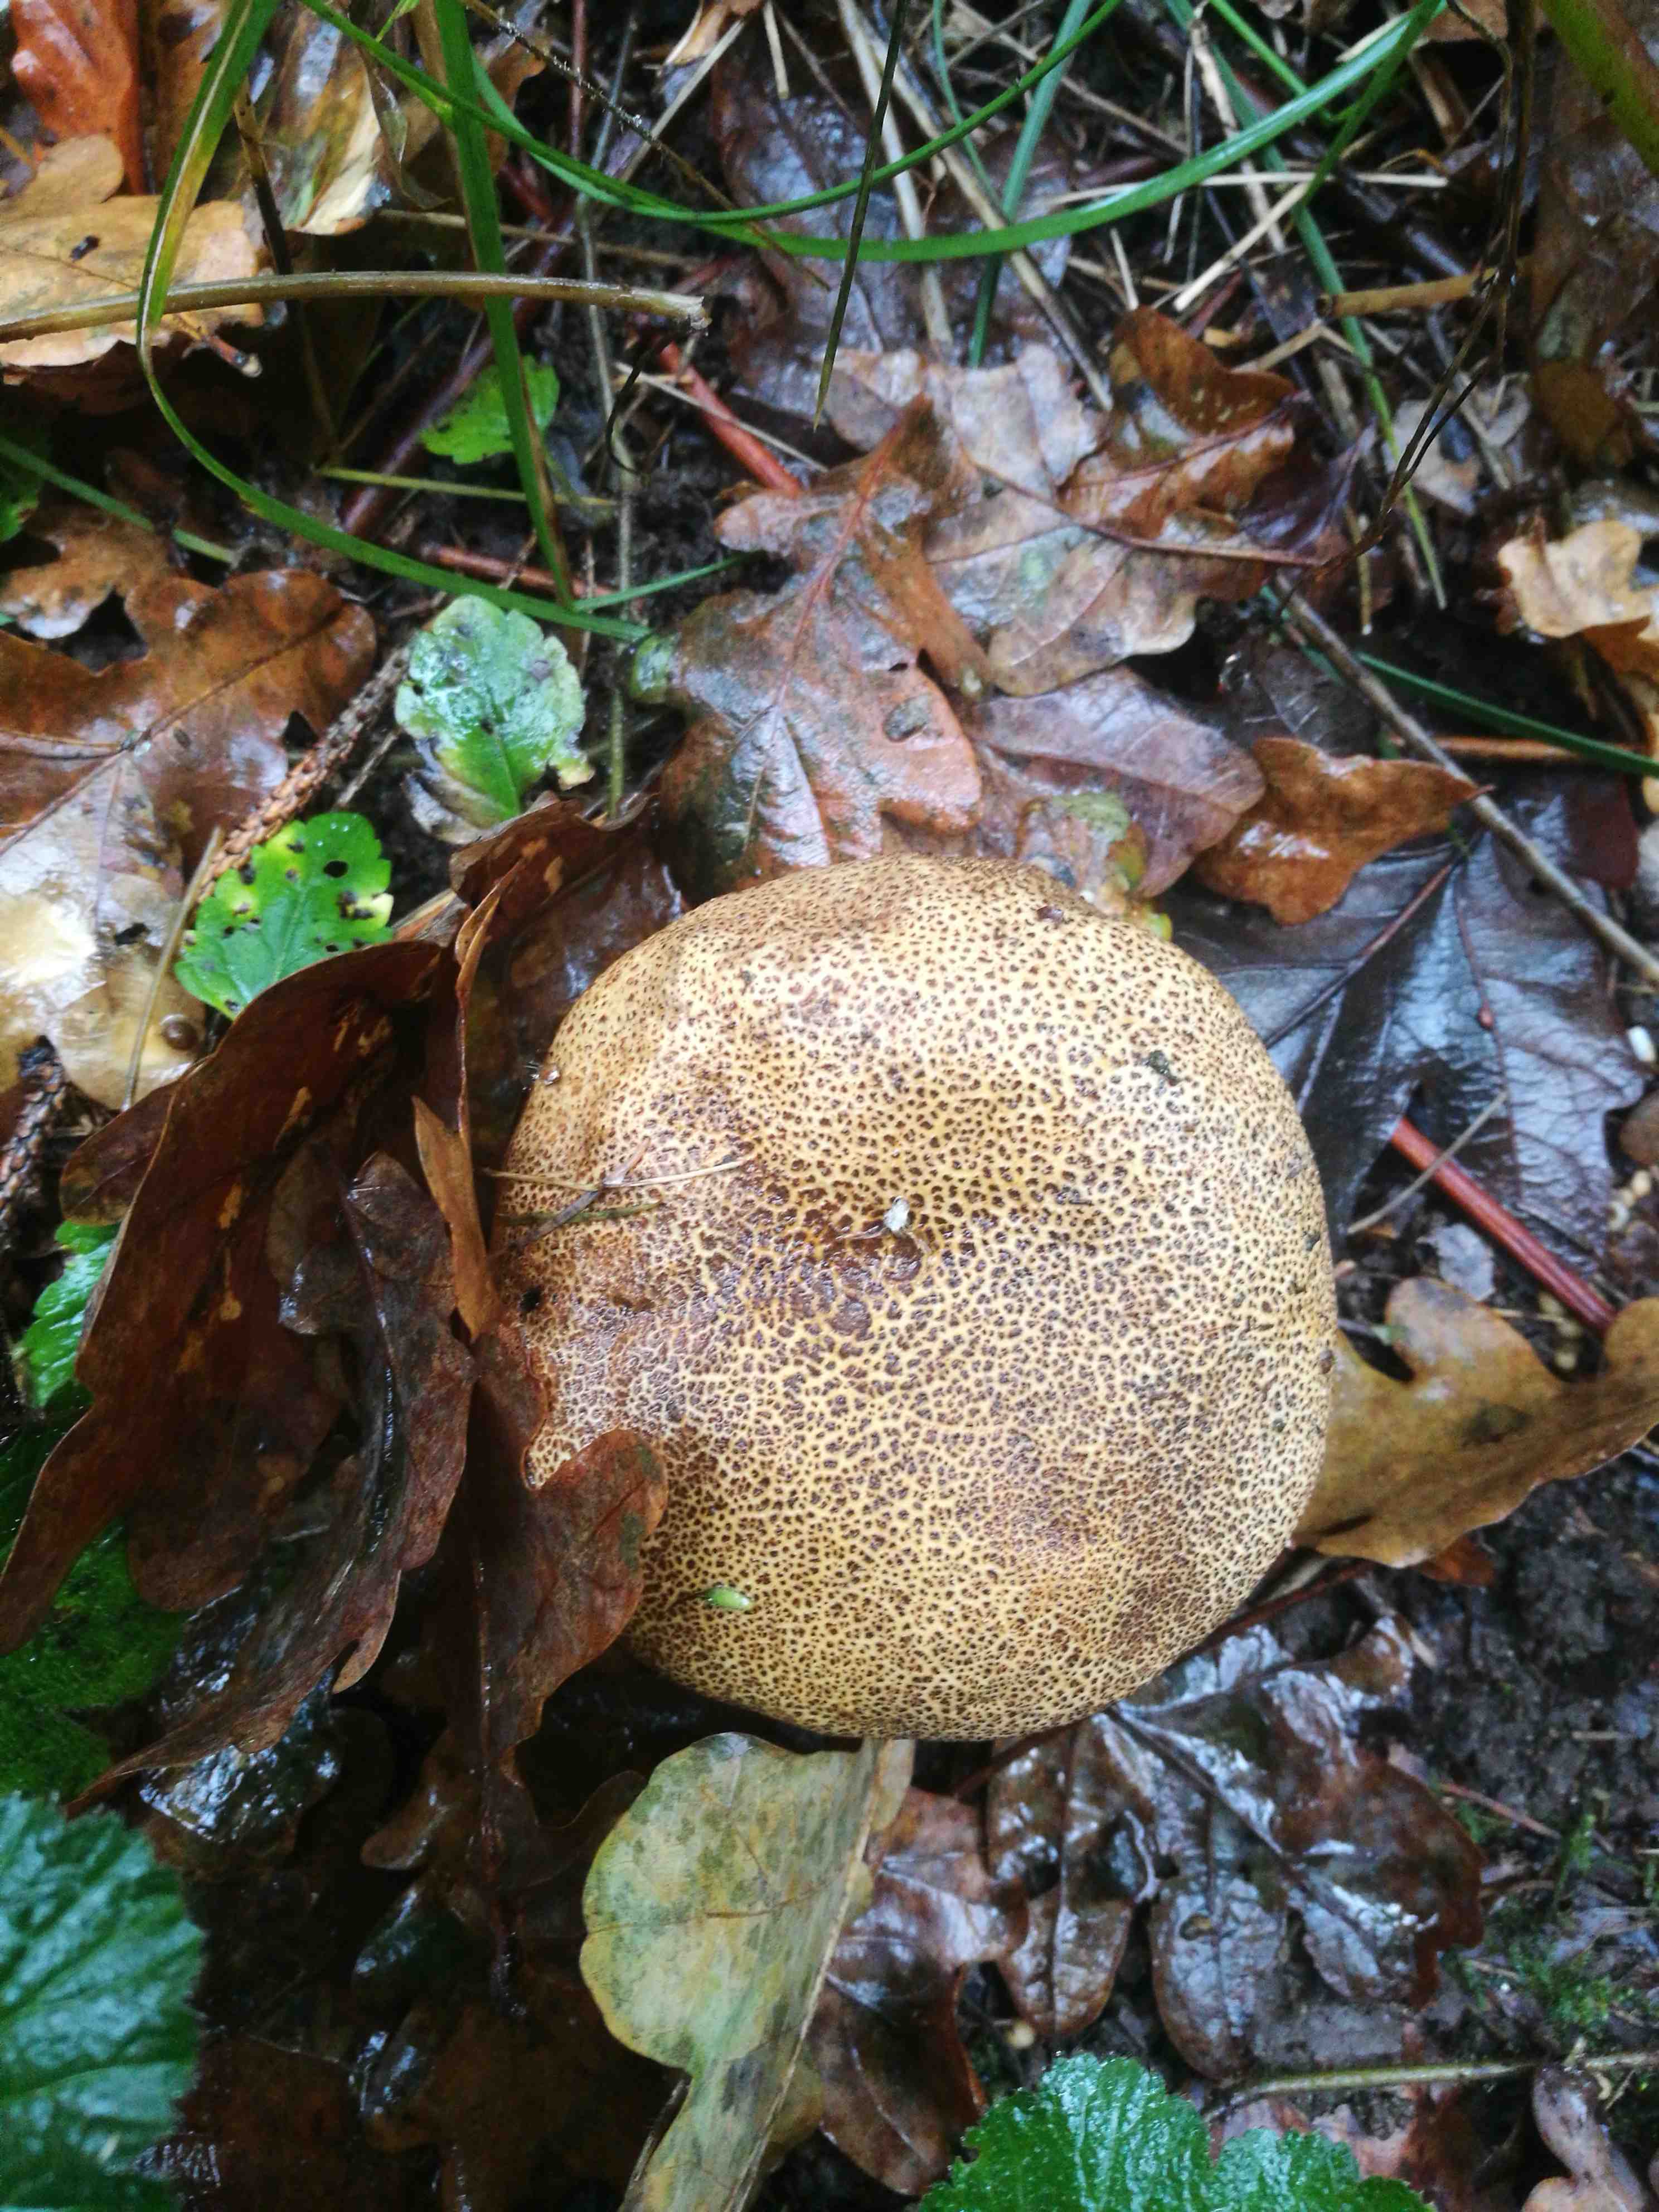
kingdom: Fungi
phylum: Basidiomycota
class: Agaricomycetes
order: Boletales
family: Sclerodermataceae
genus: Scleroderma
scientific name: Scleroderma
